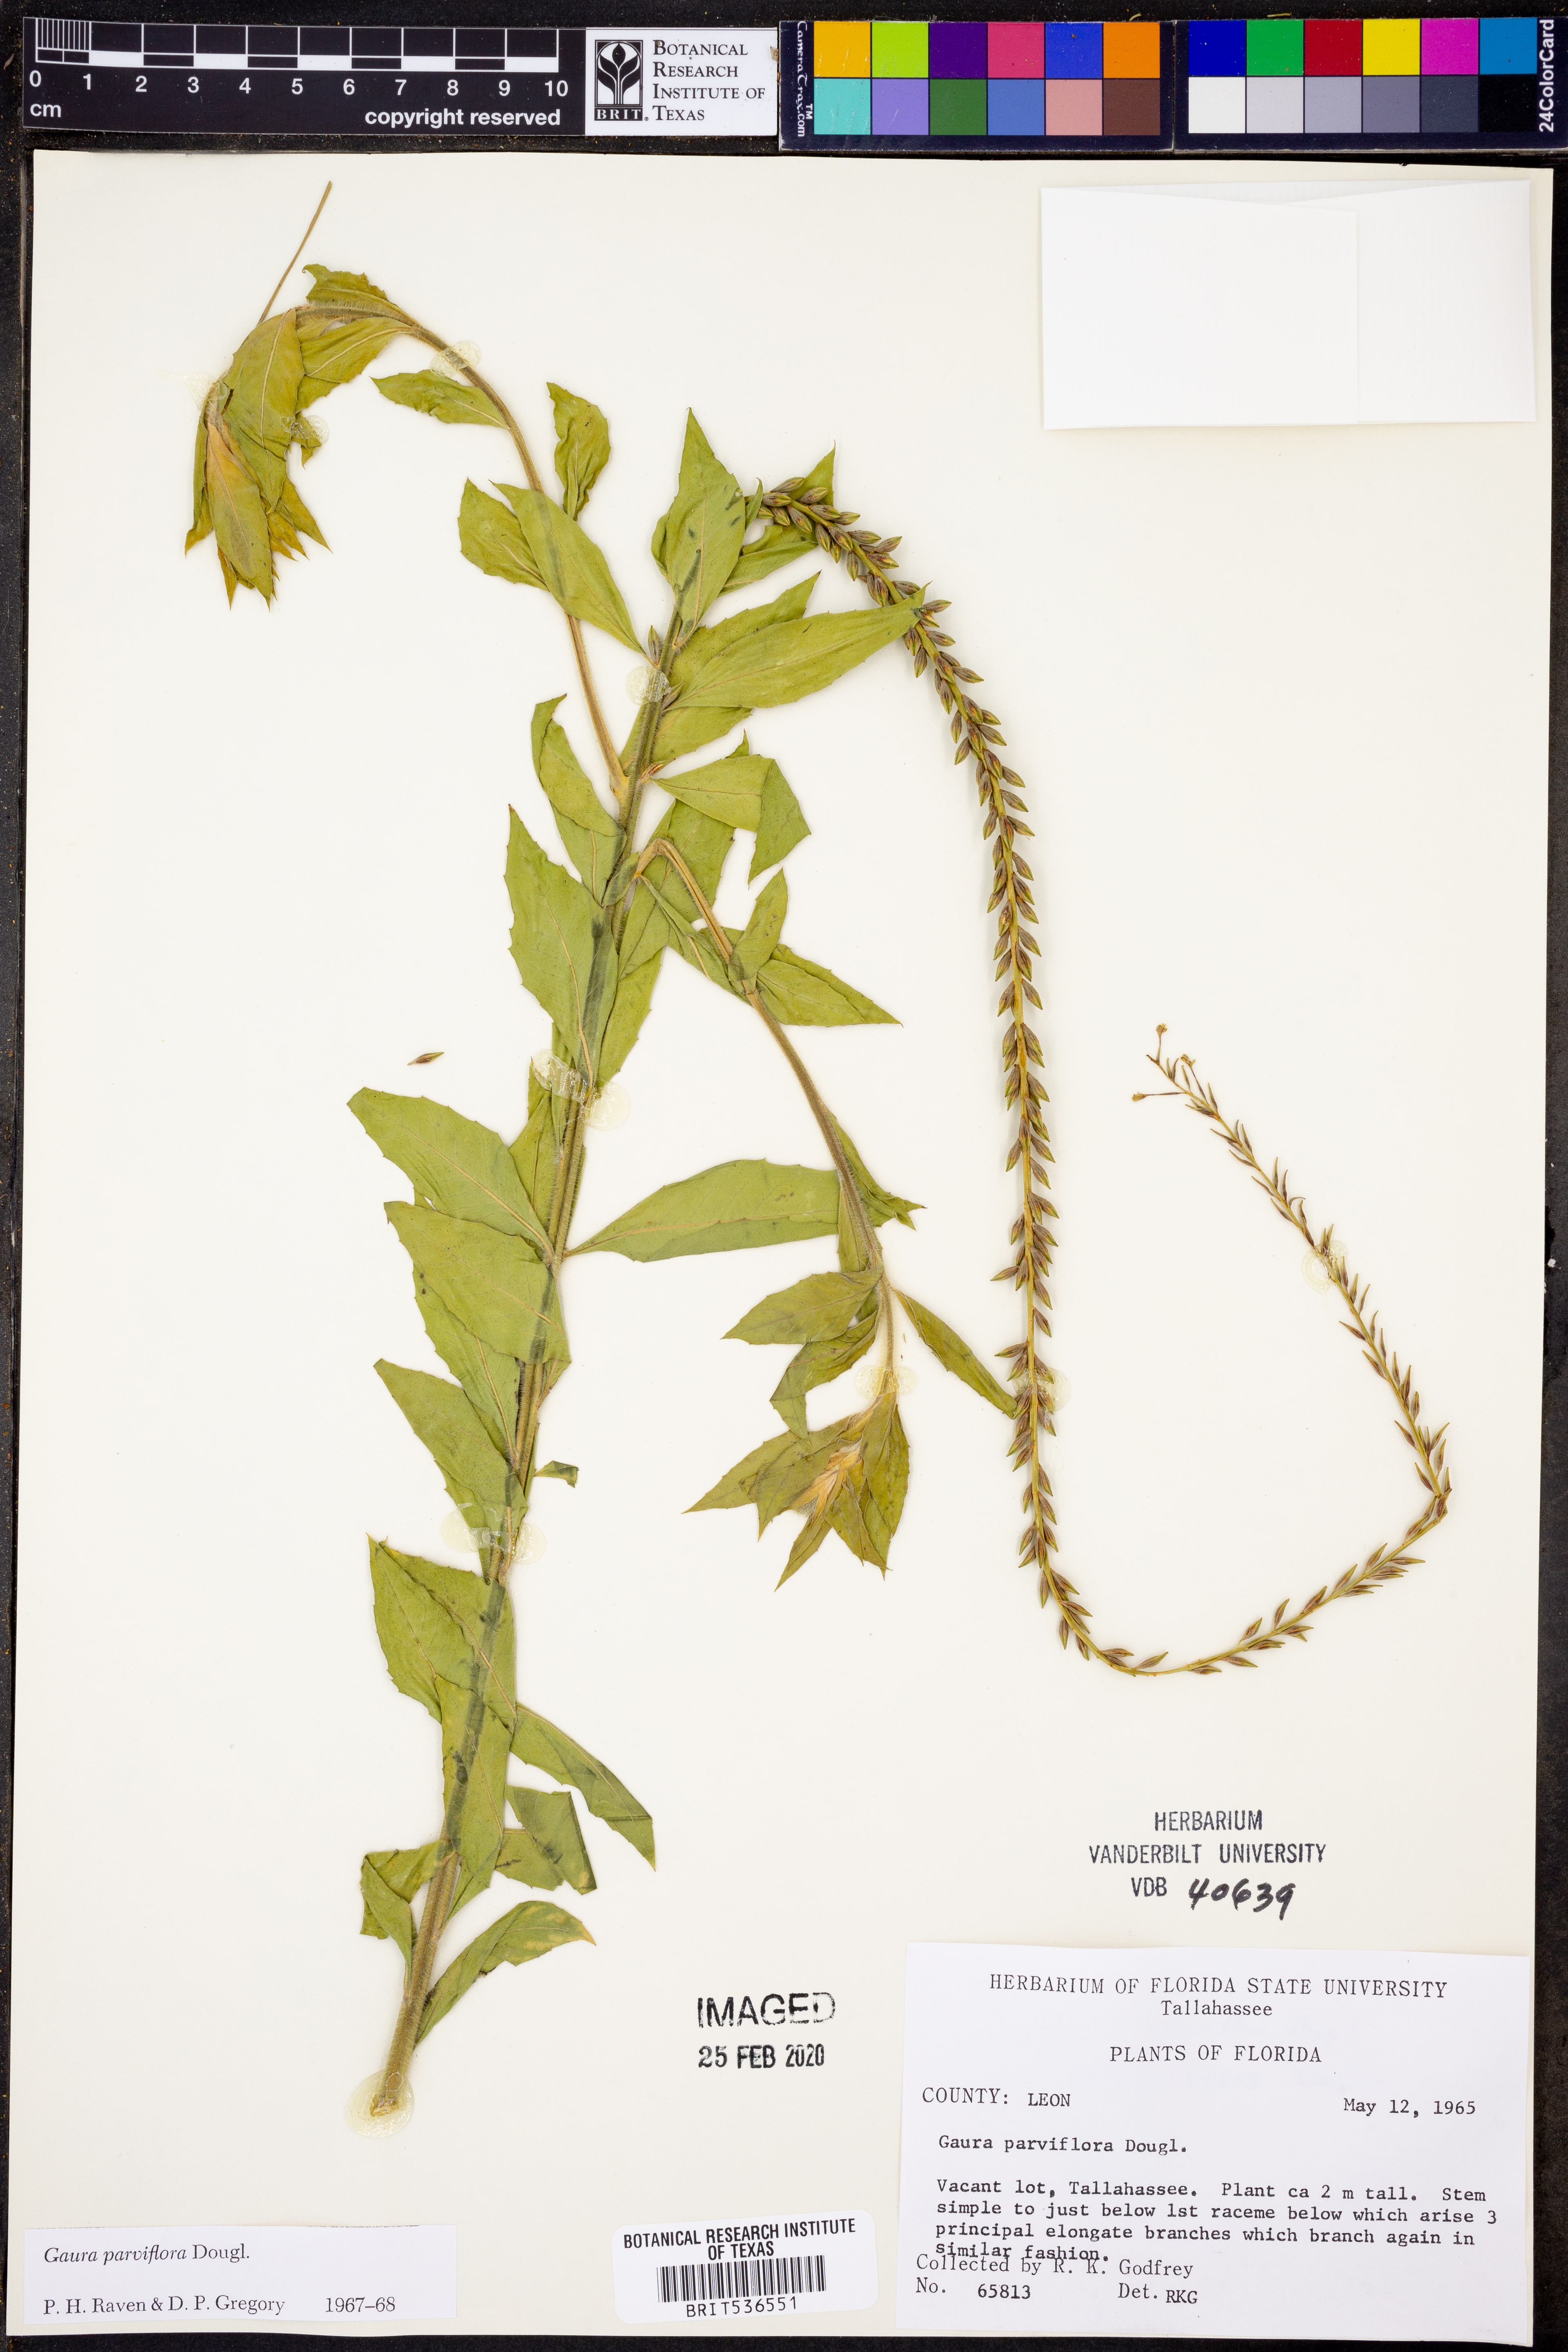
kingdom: Plantae
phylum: Tracheophyta
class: Magnoliopsida
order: Myrtales
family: Onagraceae
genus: Oenothera
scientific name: Oenothera curtiflora
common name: Velvetweed
